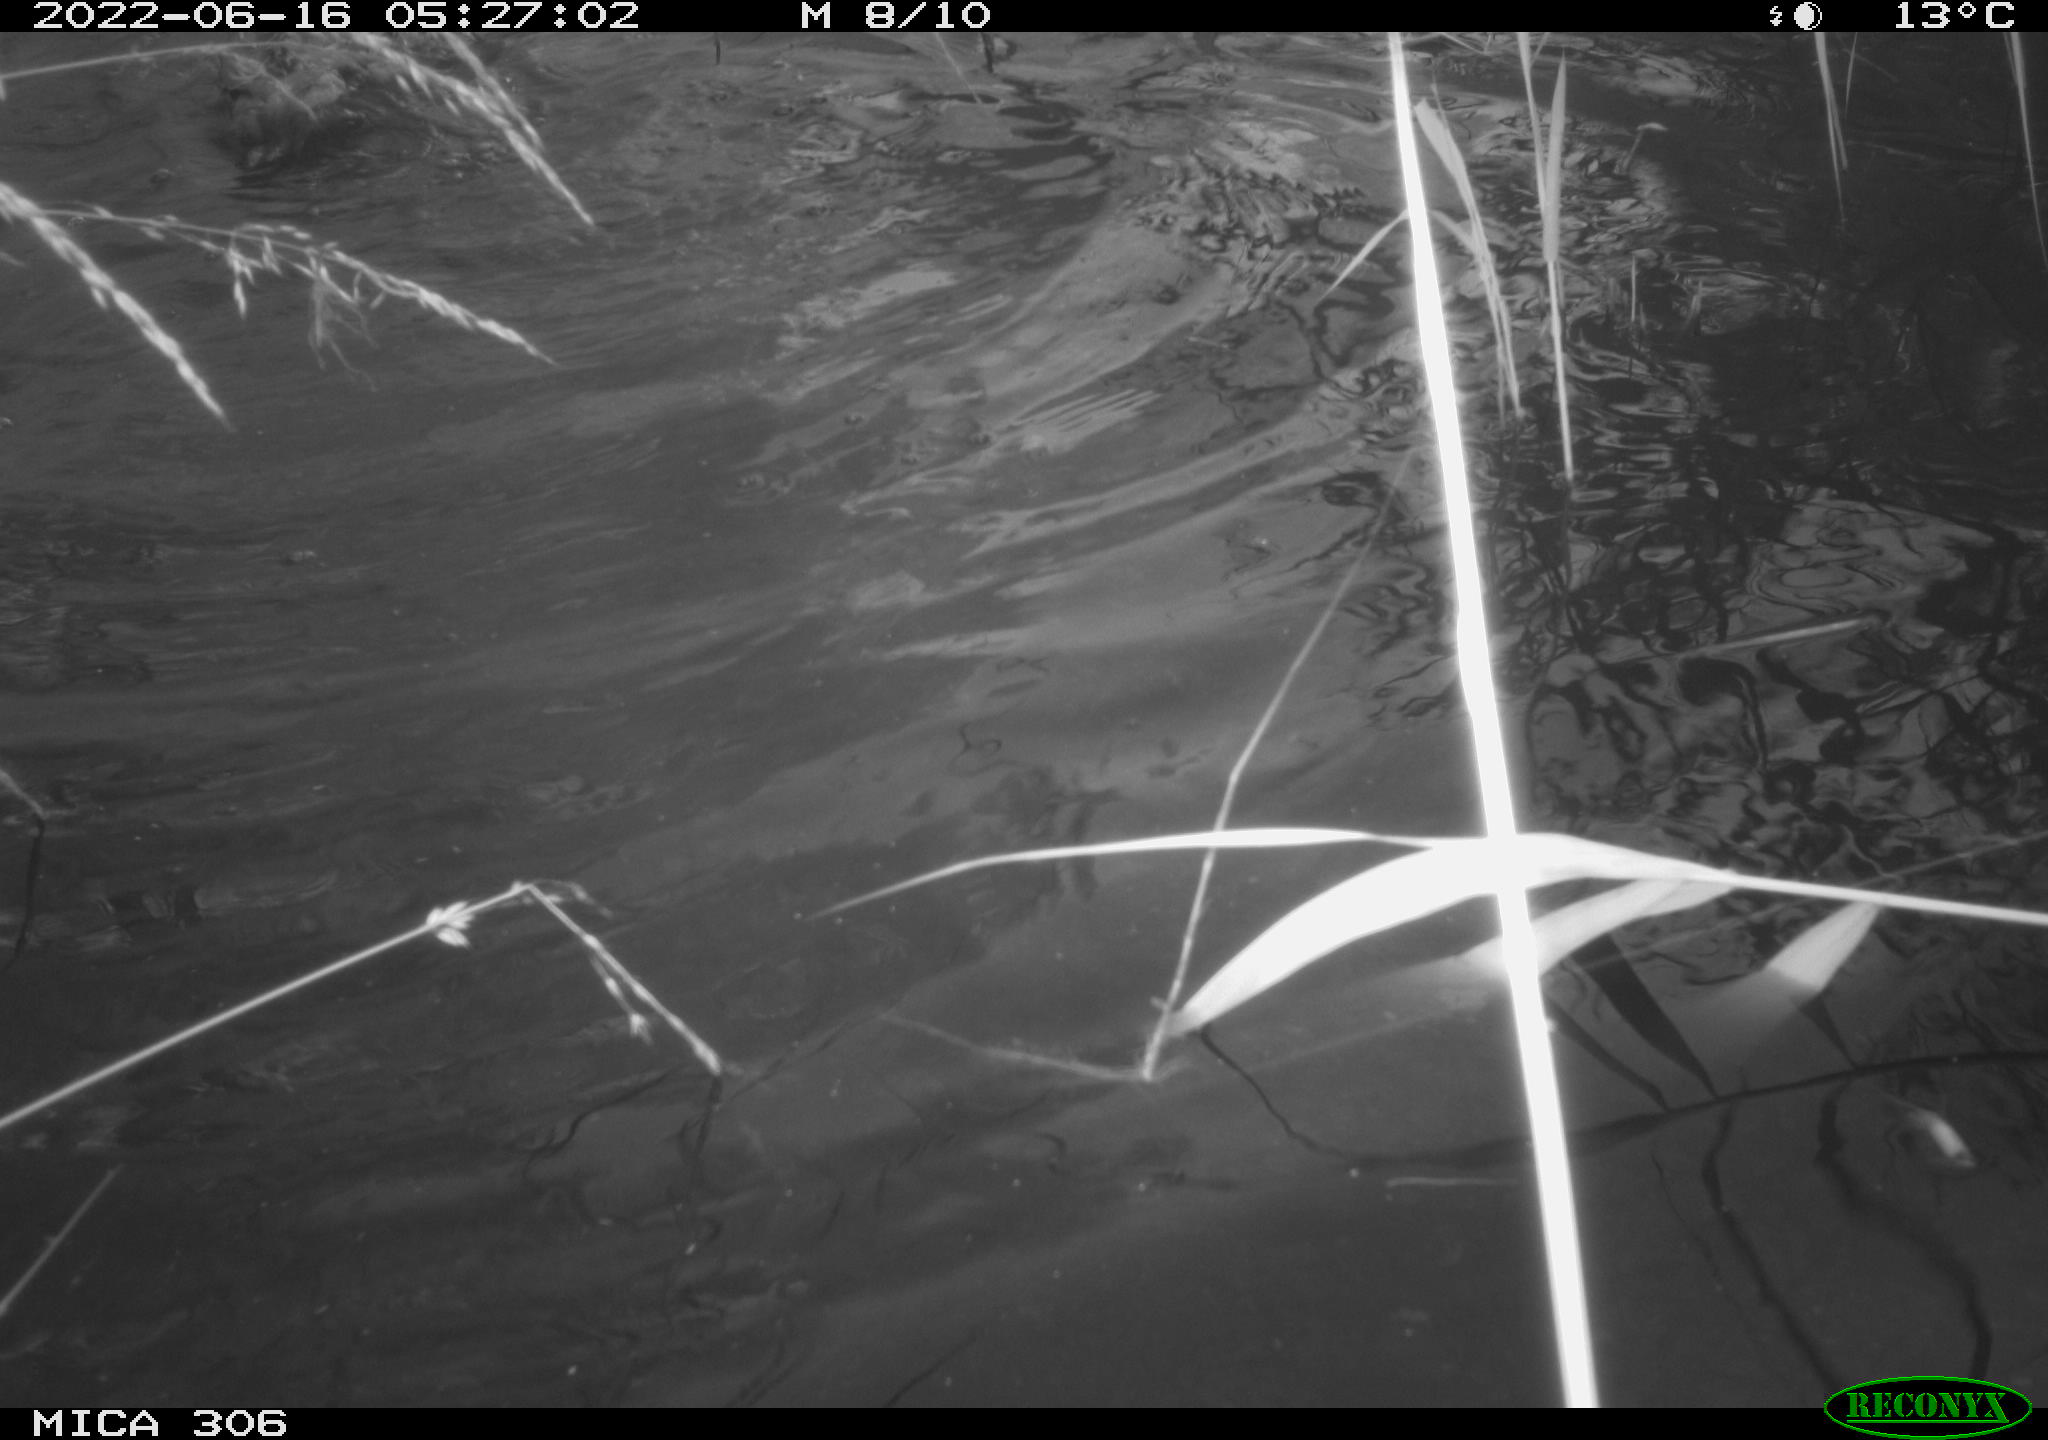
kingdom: Animalia
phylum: Chordata
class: Aves
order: Anseriformes
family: Anatidae
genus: Anas
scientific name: Anas platyrhynchos
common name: Mallard
